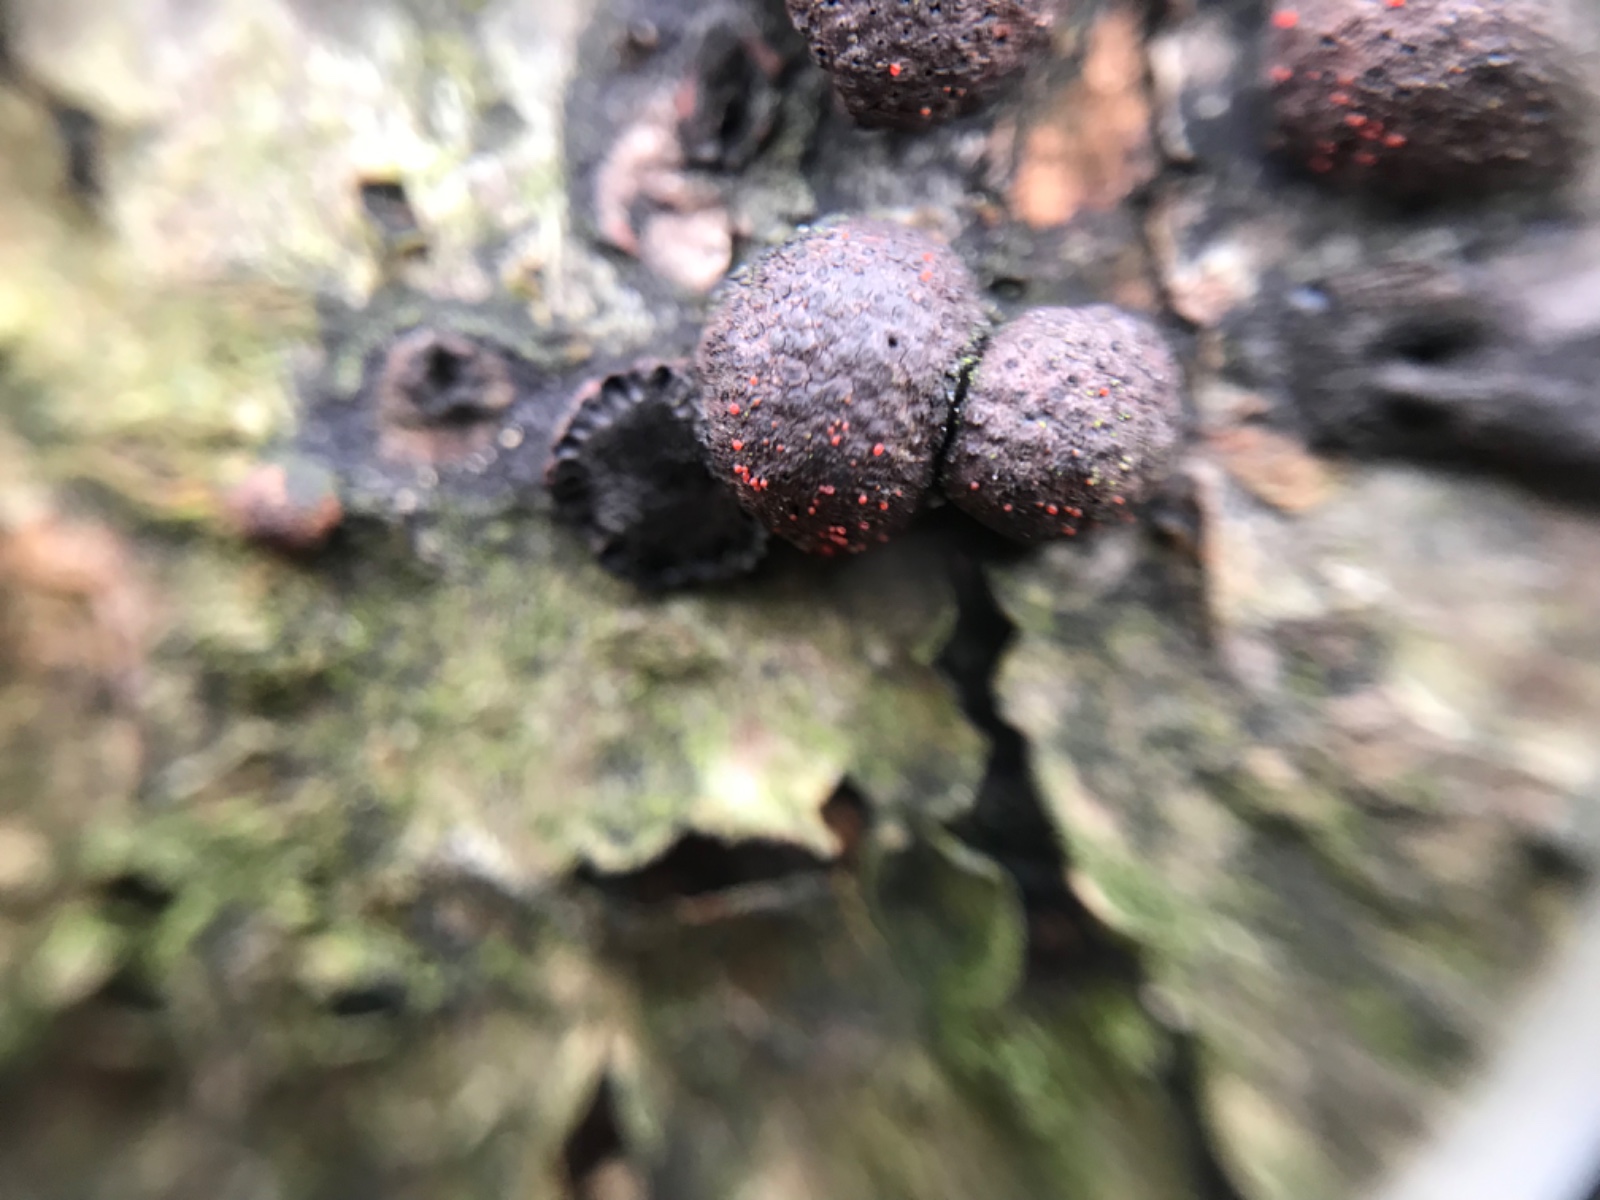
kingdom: Fungi
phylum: Ascomycota
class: Sordariomycetes
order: Hypocreales
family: Nectriaceae
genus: Cosmospora
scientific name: Cosmospora arxii
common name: kuljordbær-cinnobersvamp
